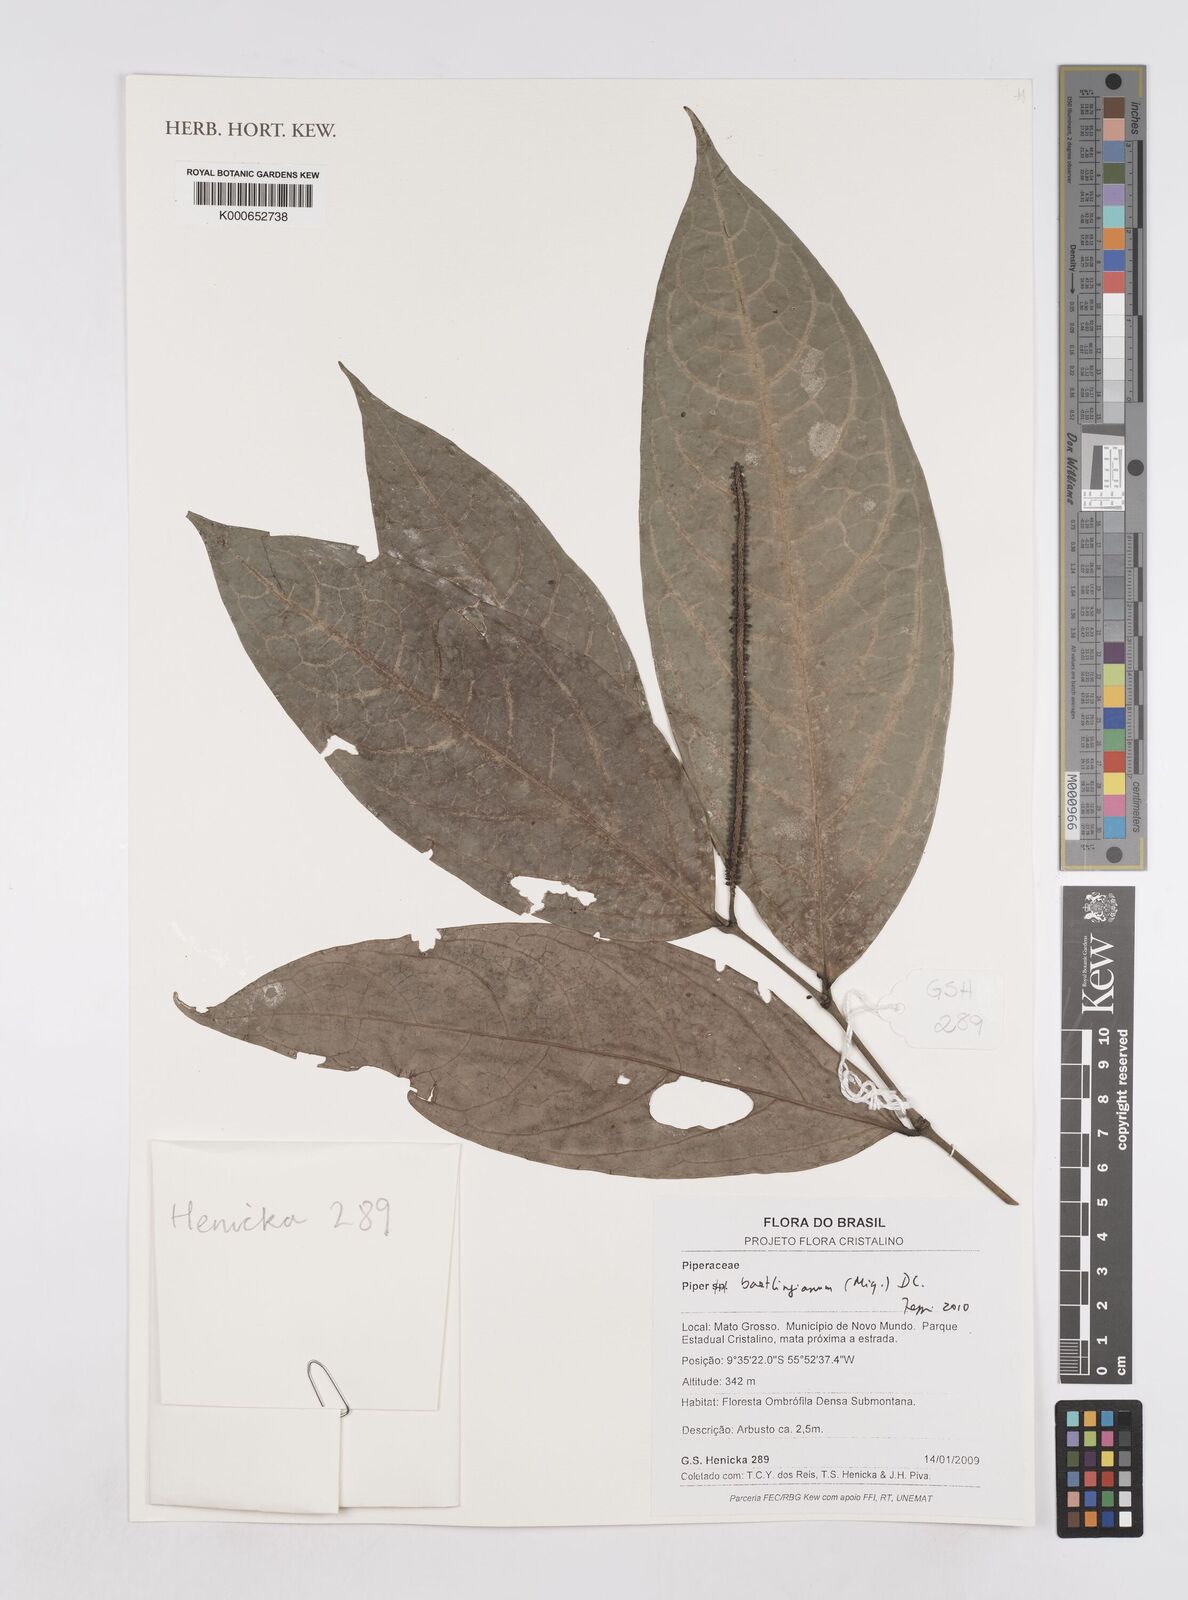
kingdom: Plantae
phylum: Tracheophyta
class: Magnoliopsida
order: Piperales
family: Piperaceae
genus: Piper
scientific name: Piper bartlingianum
